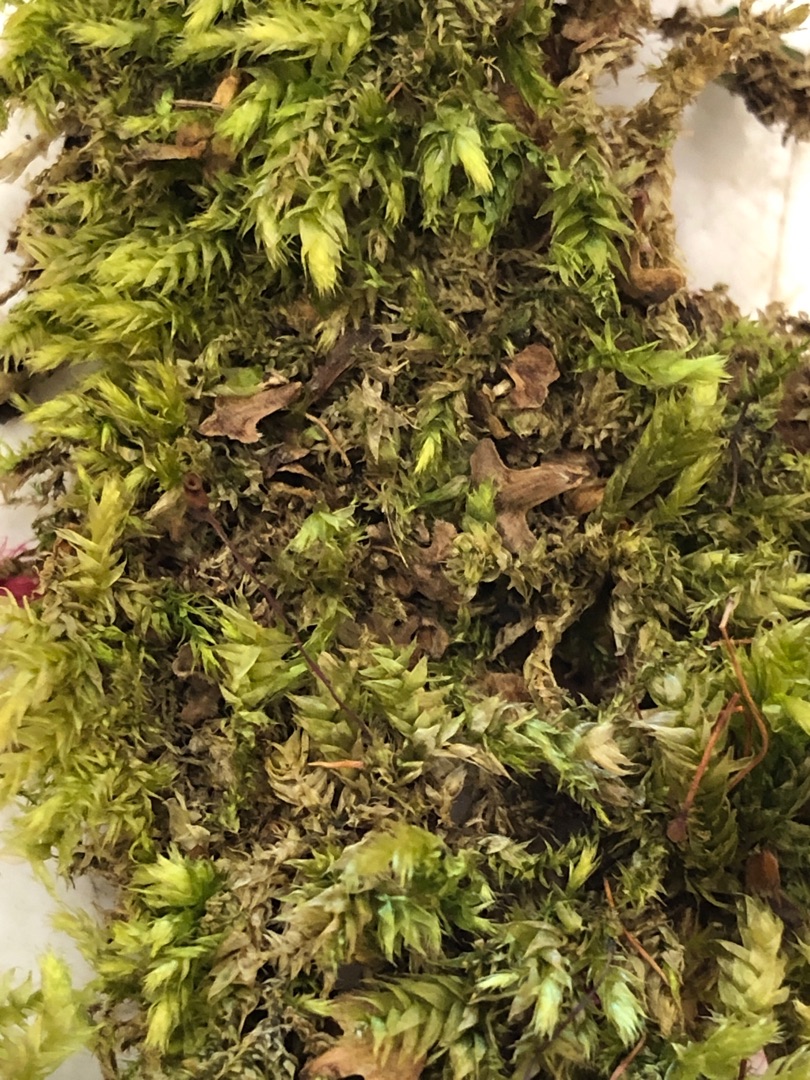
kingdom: Plantae
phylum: Bryophyta
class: Bryopsida
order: Hypnales
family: Brachytheciaceae
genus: Brachythecium
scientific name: Brachythecium rutabulum
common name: Almindelig kortkapsel
